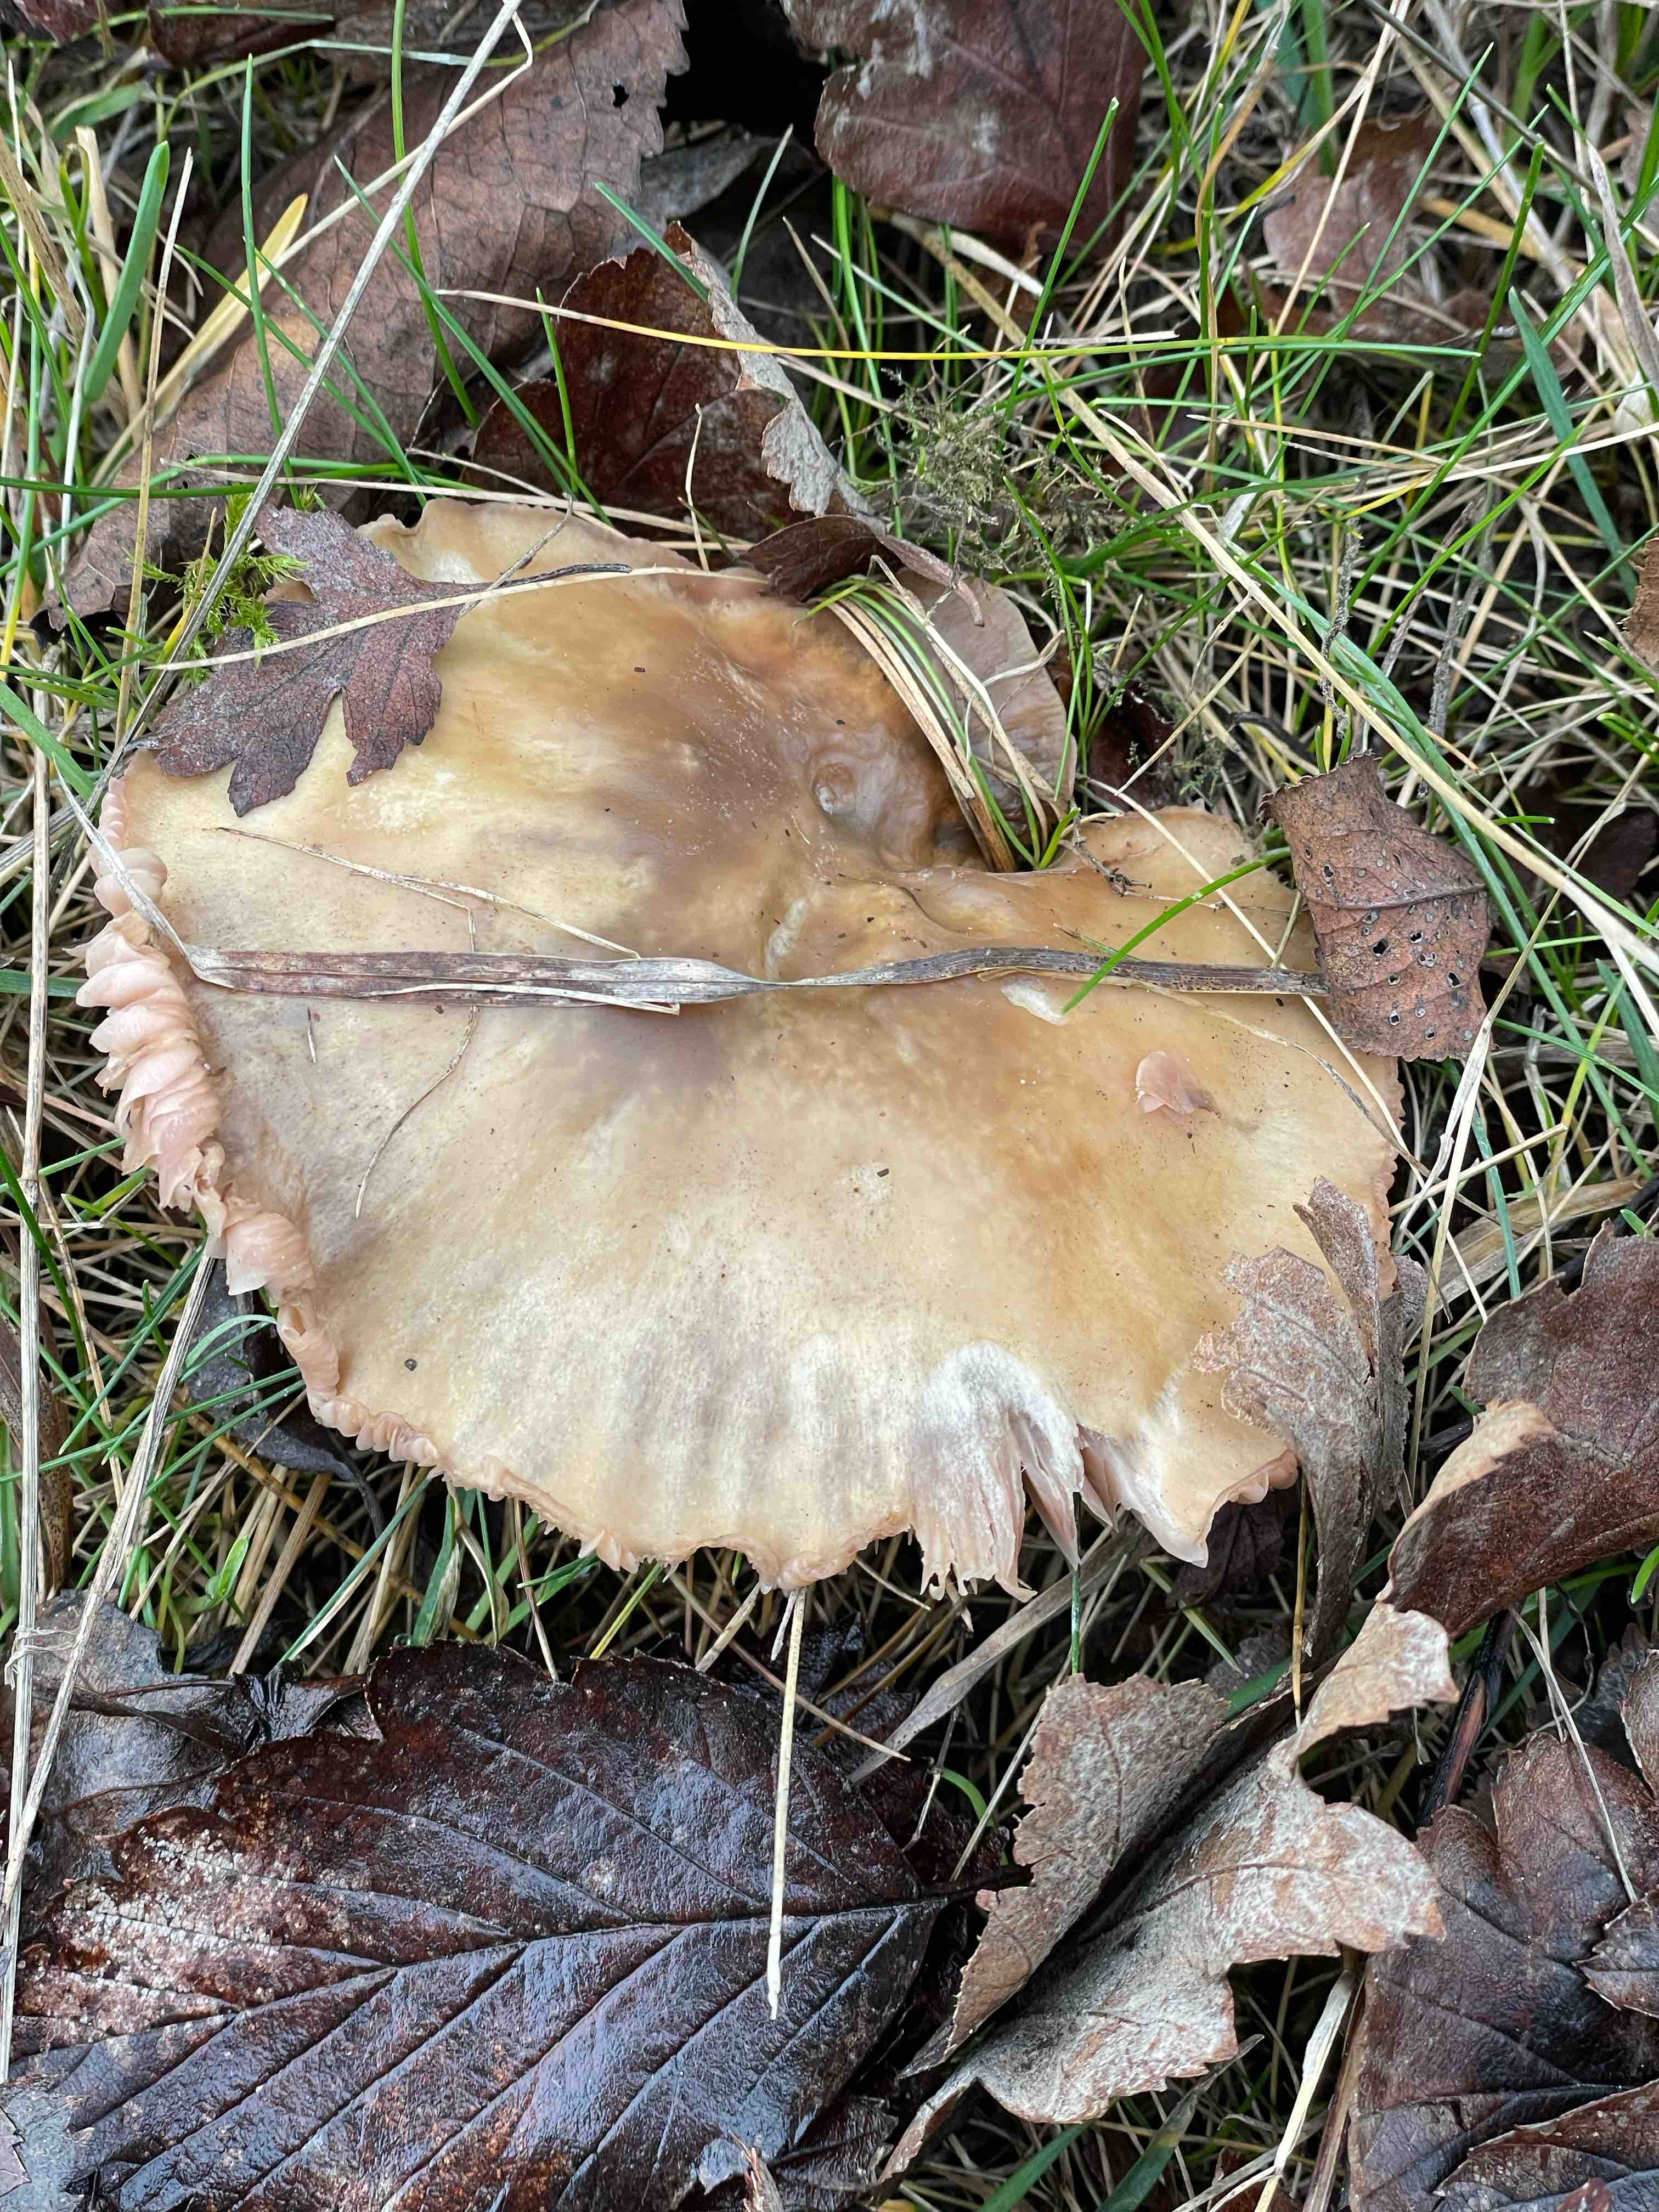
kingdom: Fungi
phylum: Basidiomycota
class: Agaricomycetes
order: Agaricales
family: Tricholomataceae
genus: Lepista
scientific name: Lepista personata
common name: bleg hekseringshat
